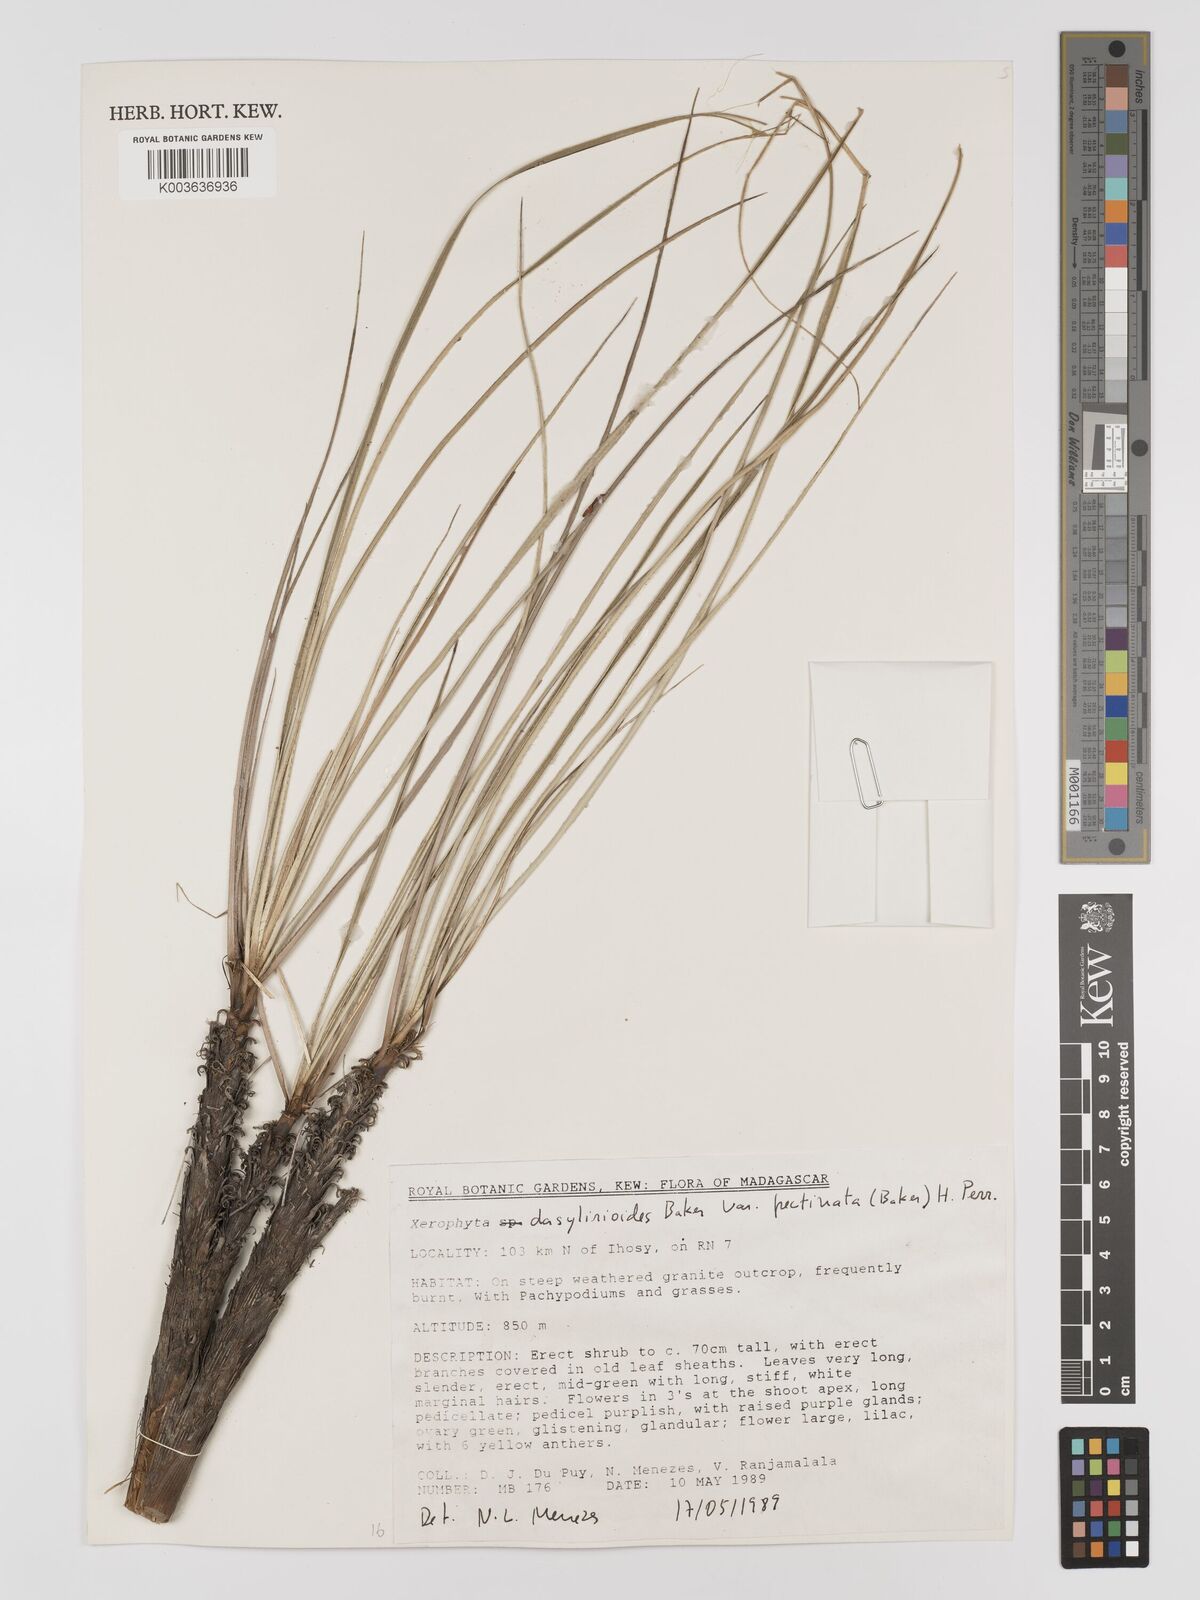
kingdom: Plantae
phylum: Tracheophyta
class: Liliopsida
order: Pandanales
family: Velloziaceae
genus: Xerophyta
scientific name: Xerophyta pectinata
